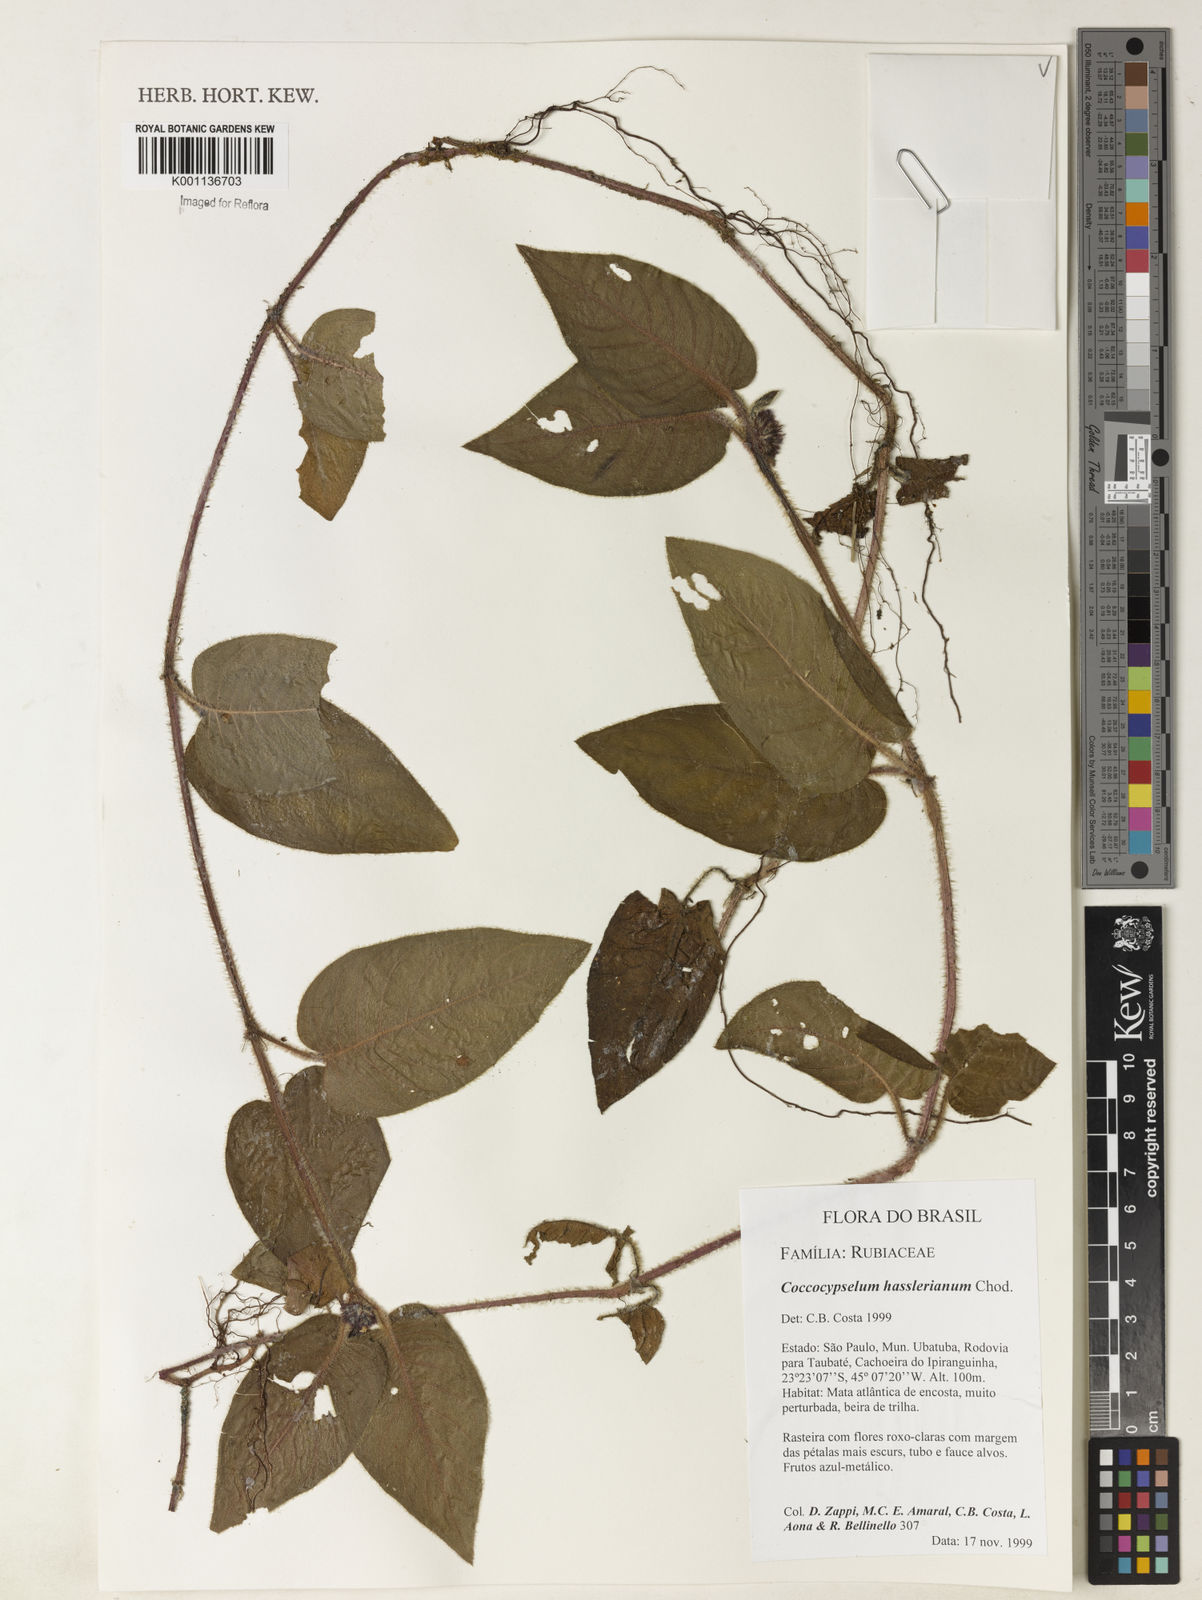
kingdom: Plantae
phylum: Tracheophyta
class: Magnoliopsida
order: Gentianales
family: Rubiaceae
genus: Coccocypselum
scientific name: Coccocypselum hasslerianum
